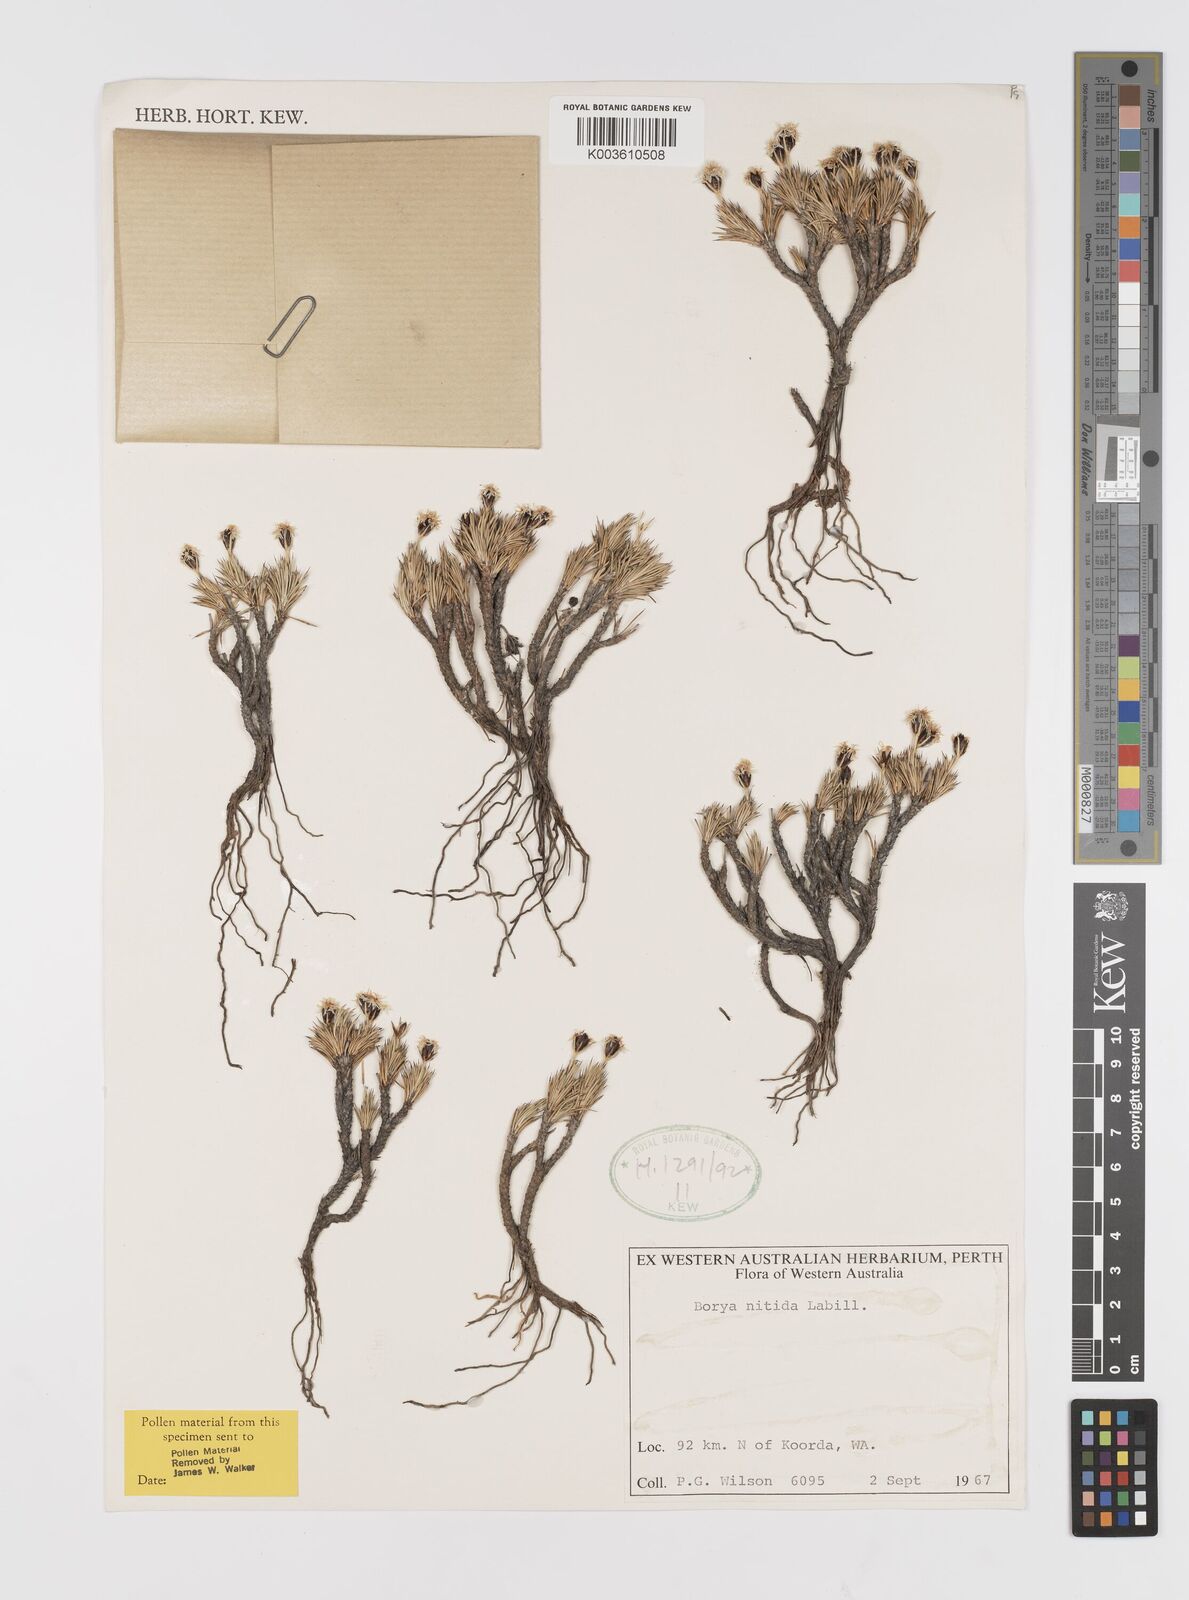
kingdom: Plantae
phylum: Tracheophyta
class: Liliopsida
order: Asparagales
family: Boryaceae
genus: Borya
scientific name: Borya nitida
